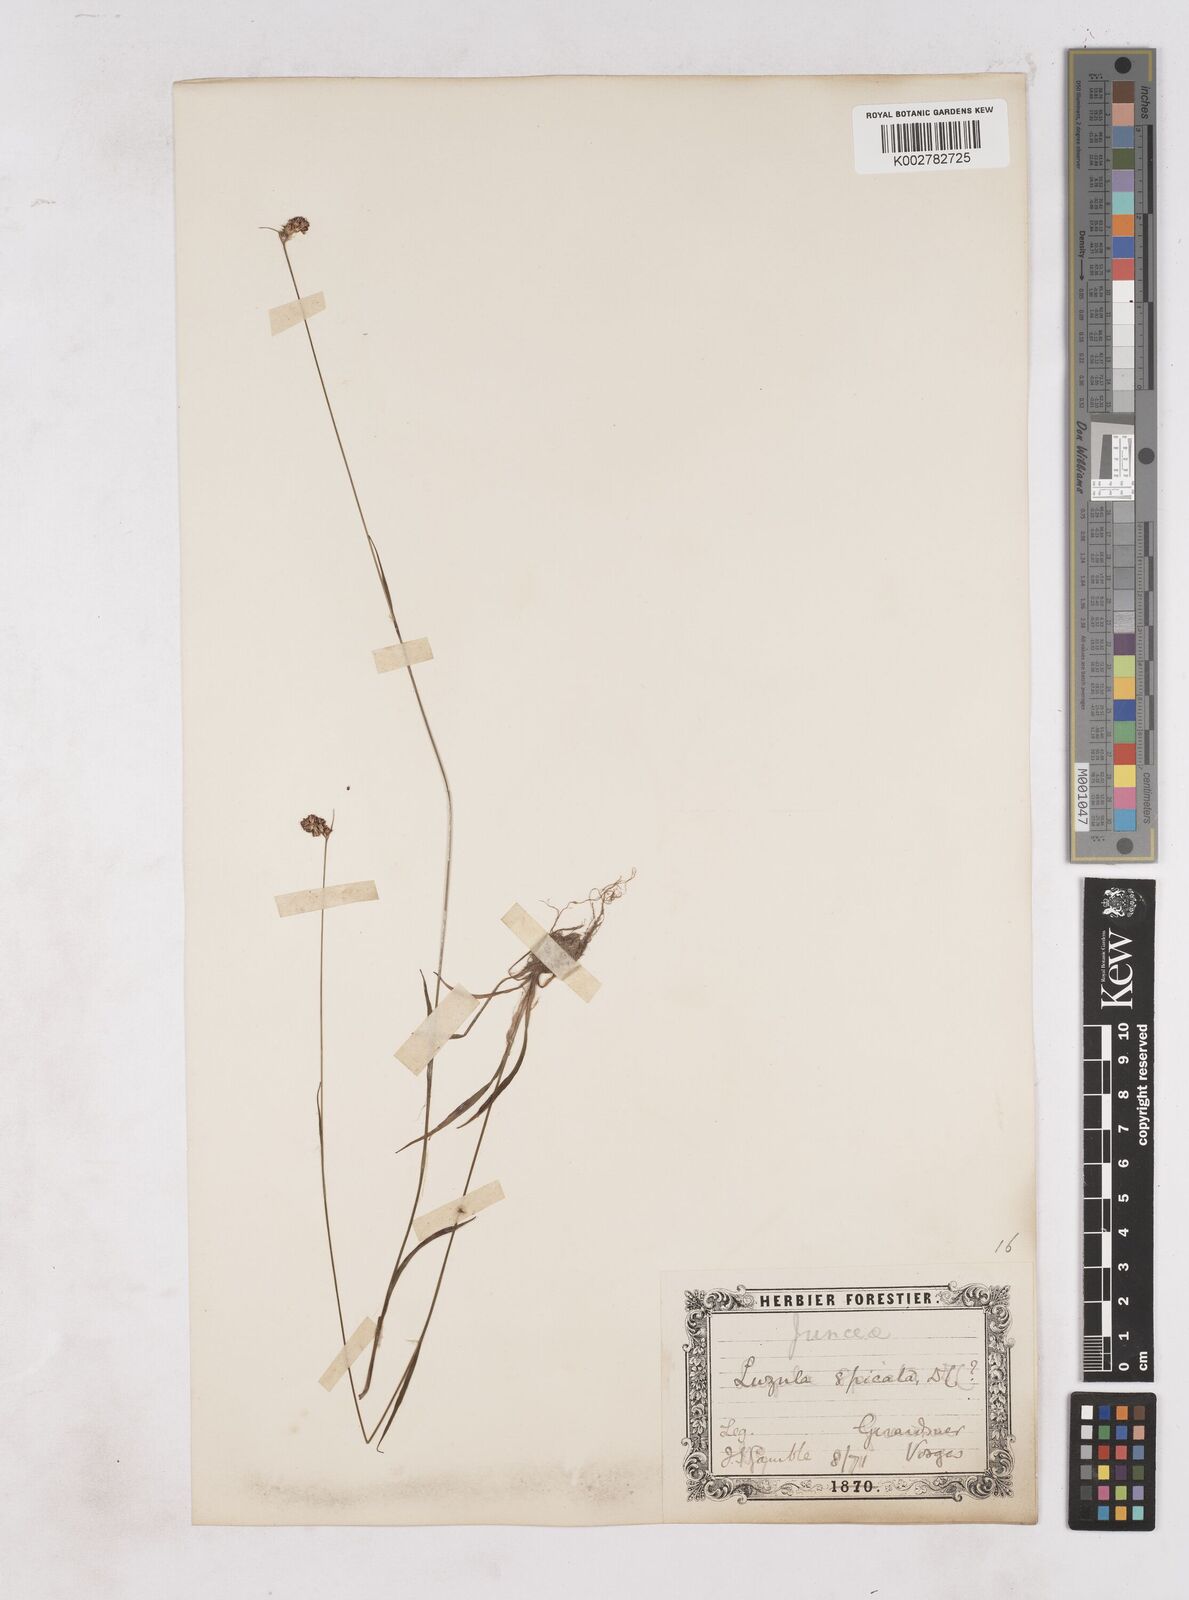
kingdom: Plantae
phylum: Tracheophyta
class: Liliopsida
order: Poales
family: Juncaceae
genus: Luzula
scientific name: Luzula spicata
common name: Spiked wood-rush
